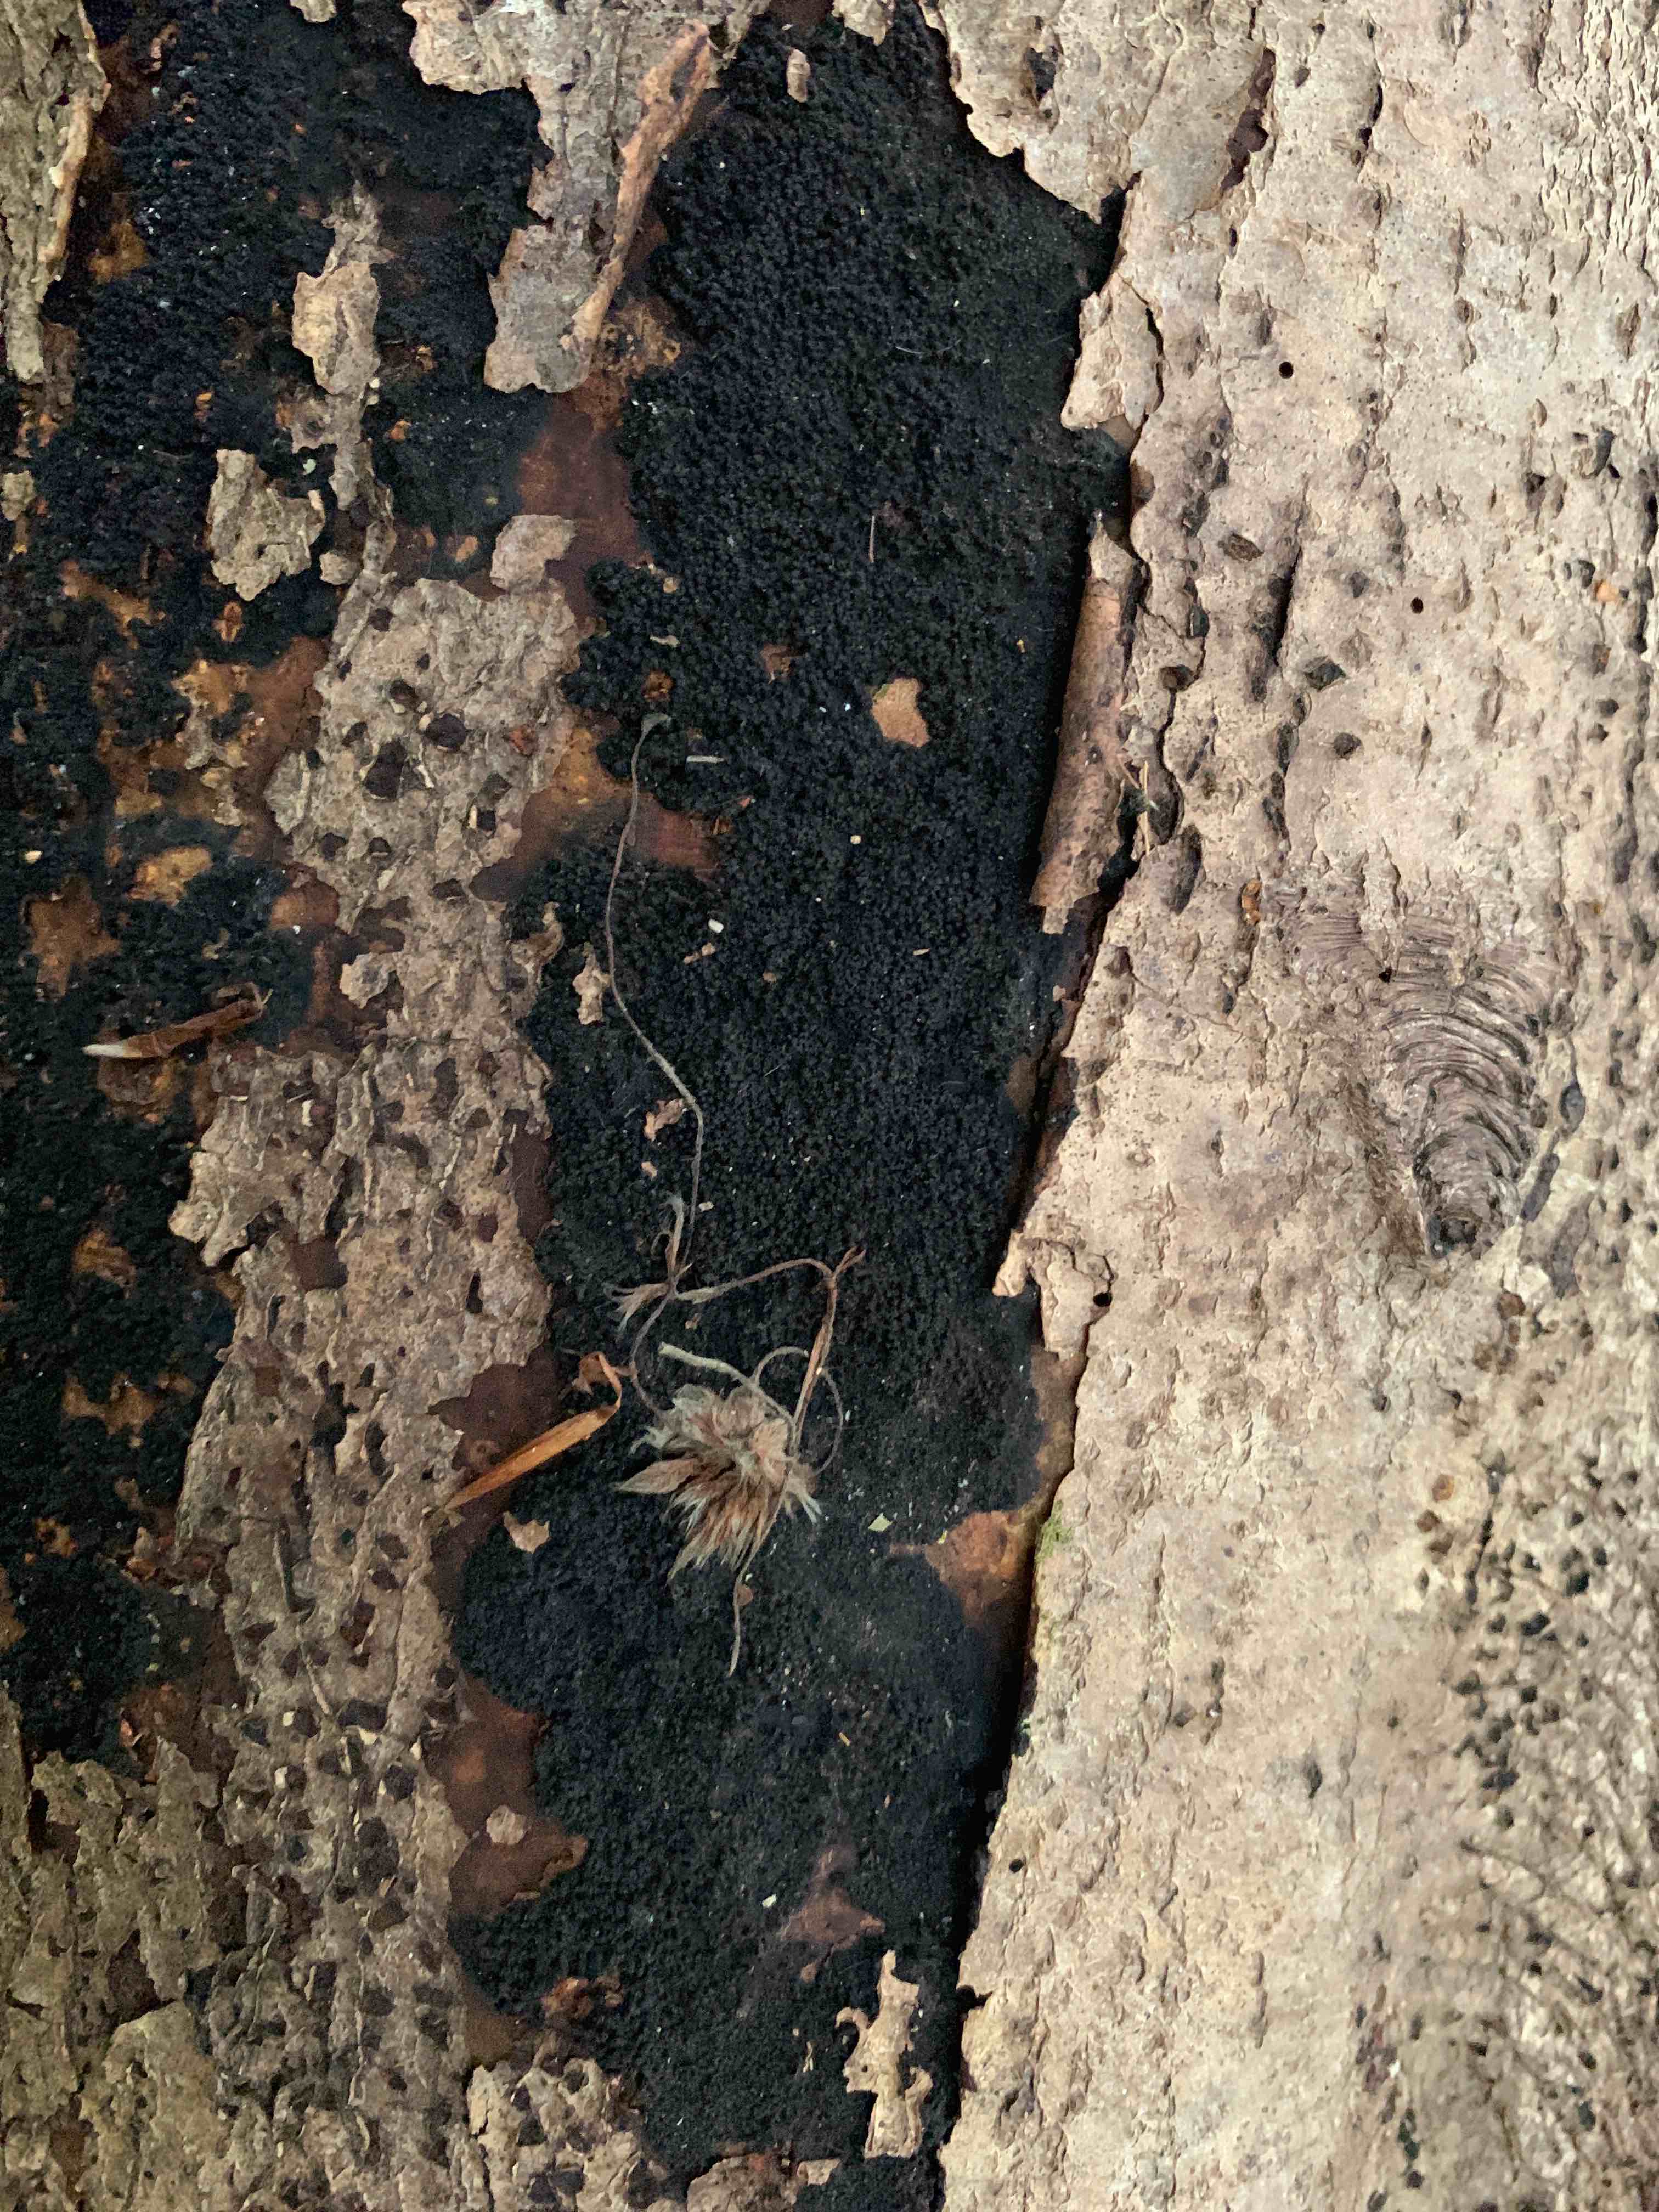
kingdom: Fungi
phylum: Ascomycota
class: Sordariomycetes
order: Xylariales
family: Diatrypaceae
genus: Eutypa
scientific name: Eutypa spinosa
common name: grov kulskorpe
